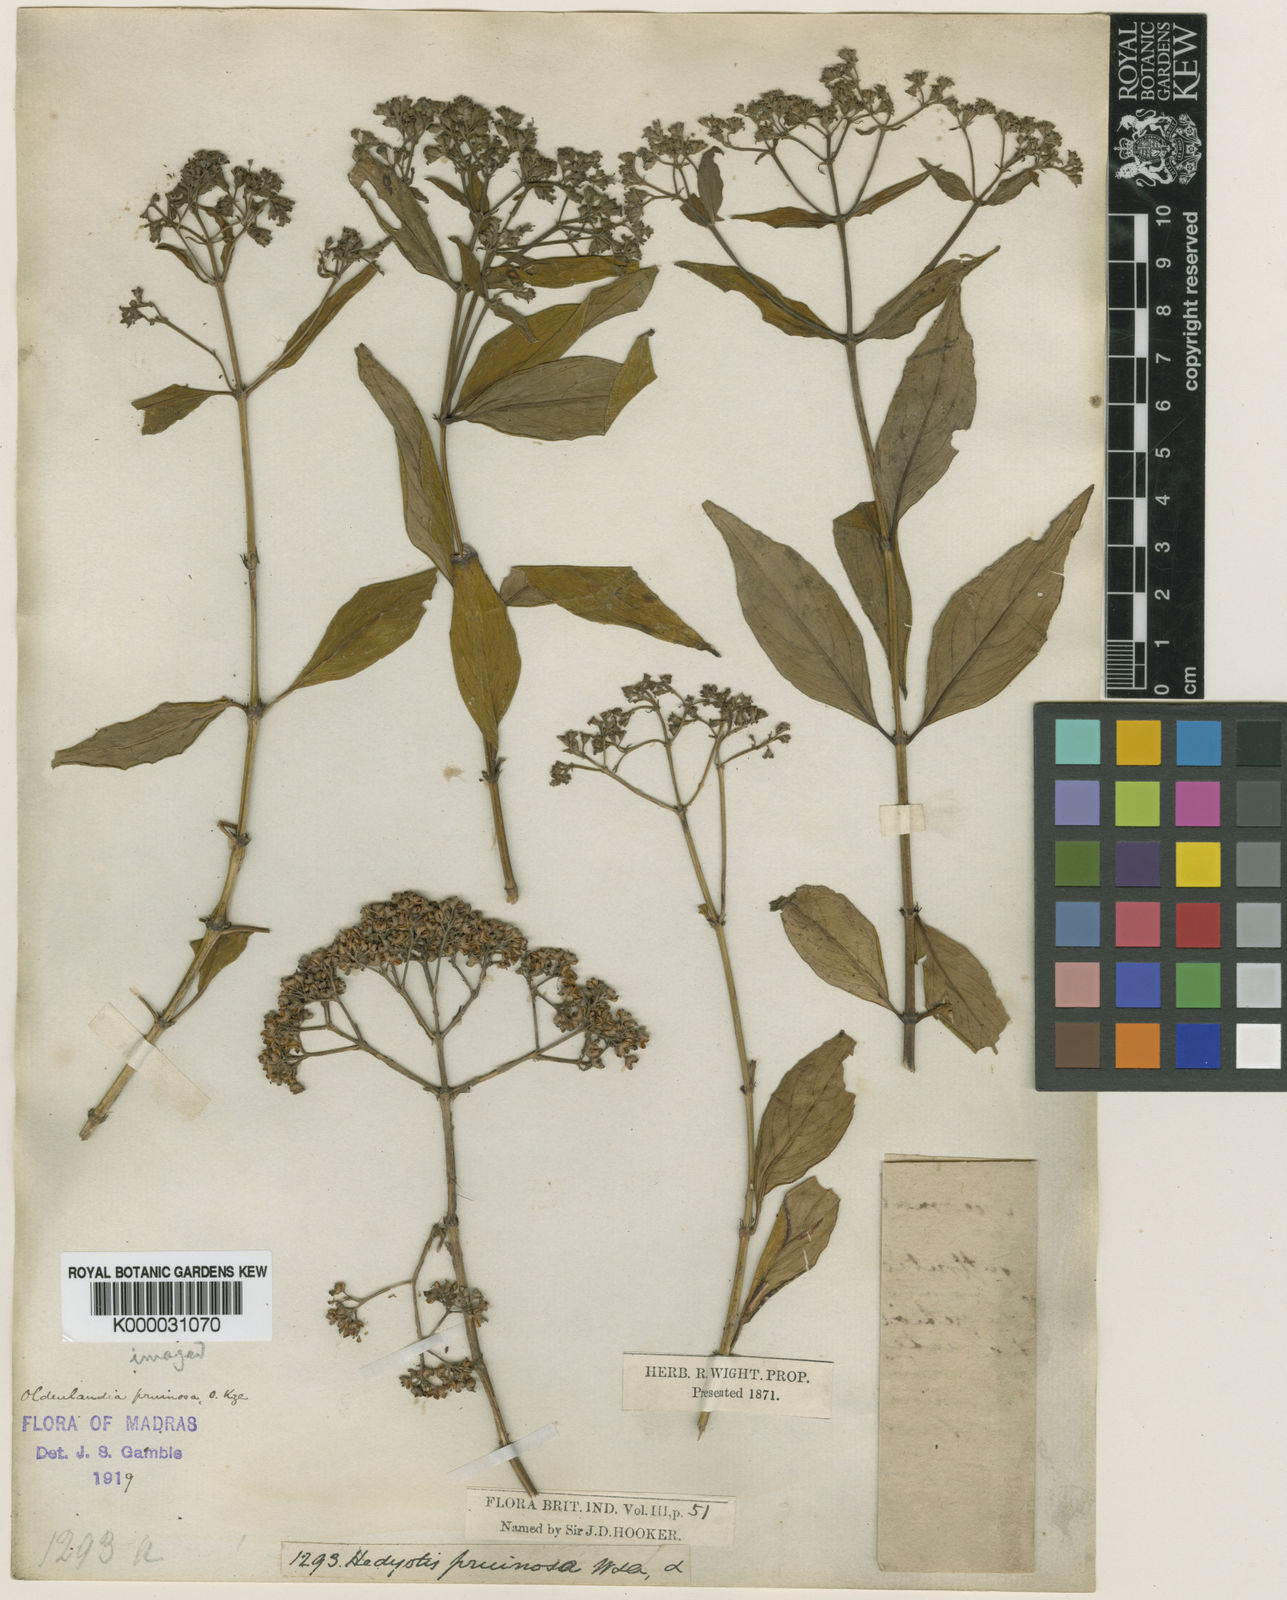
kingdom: Plantae
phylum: Tracheophyta
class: Magnoliopsida
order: Gentianales
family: Rubiaceae
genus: Hedyotis
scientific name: Hedyotis pruinosa
